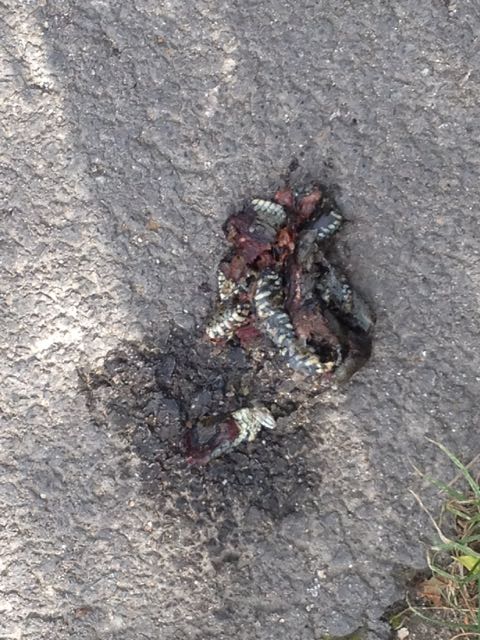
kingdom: Animalia
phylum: Chordata
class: Squamata
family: Colubridae
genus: Natrix
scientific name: Natrix natrix
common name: Grass snake
